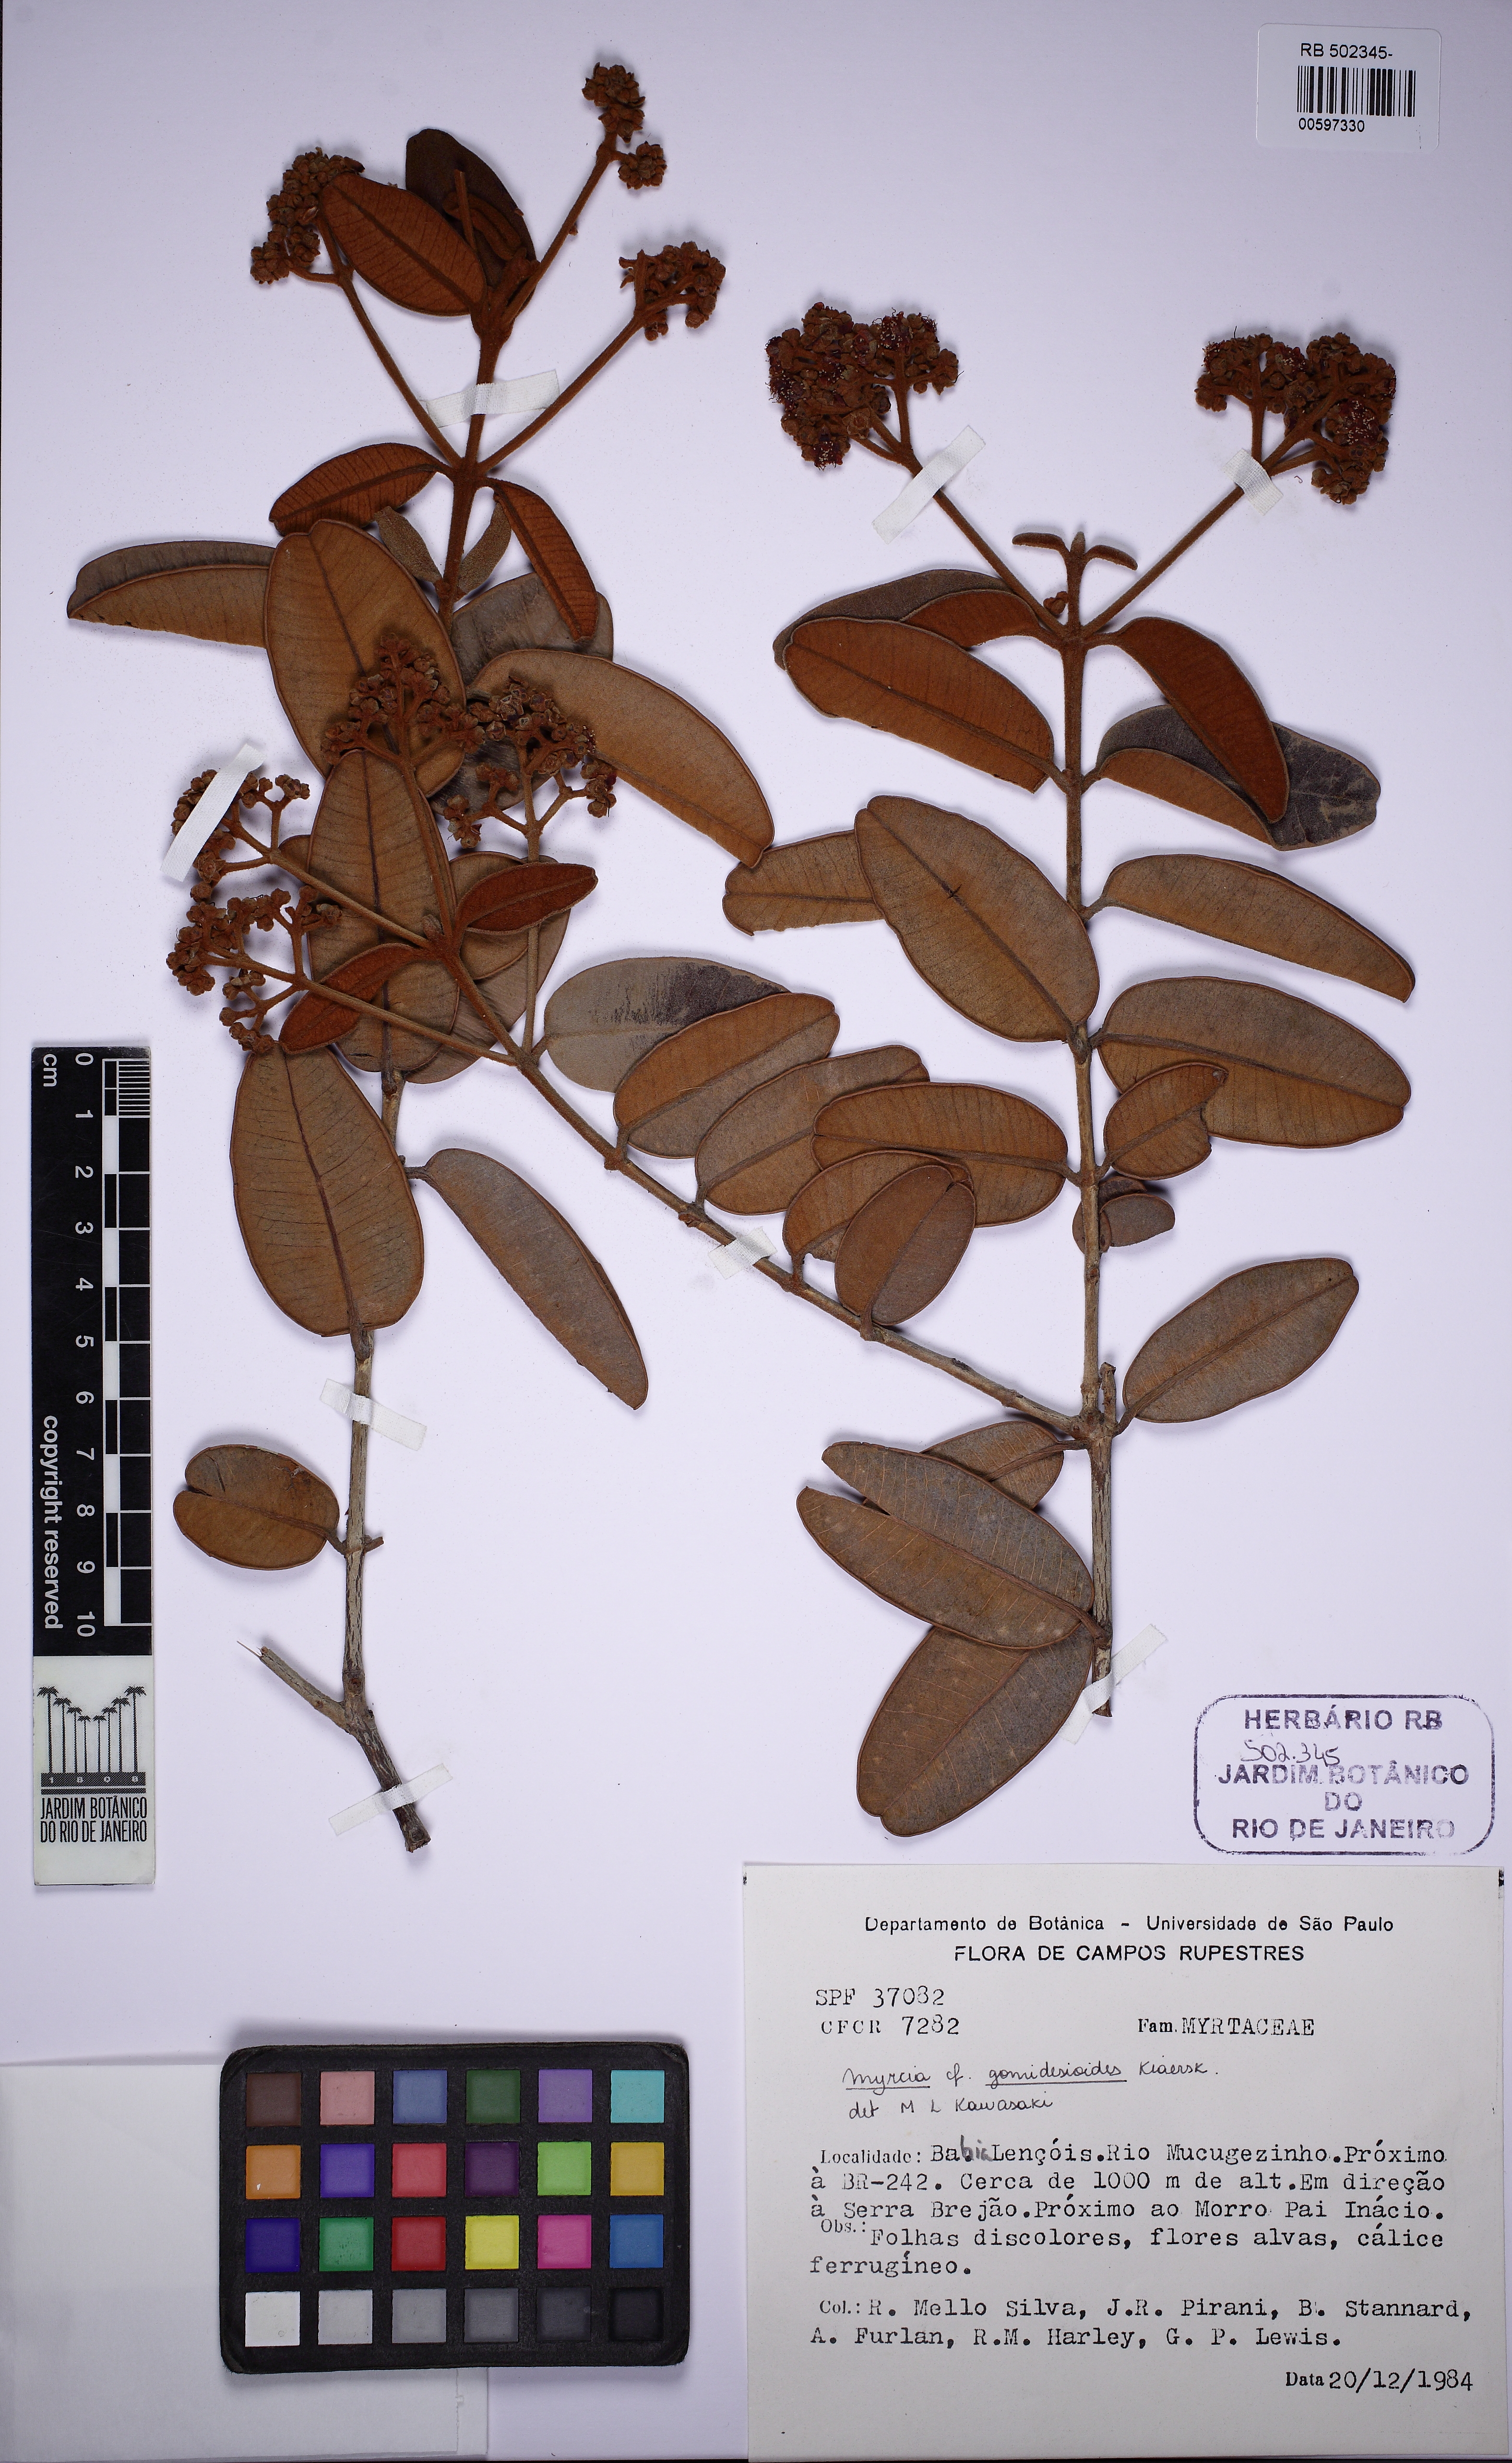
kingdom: Plantae
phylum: Tracheophyta
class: Magnoliopsida
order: Myrtales
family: Myrtaceae
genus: Myrcia
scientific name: Myrcia pseudovenulosa
